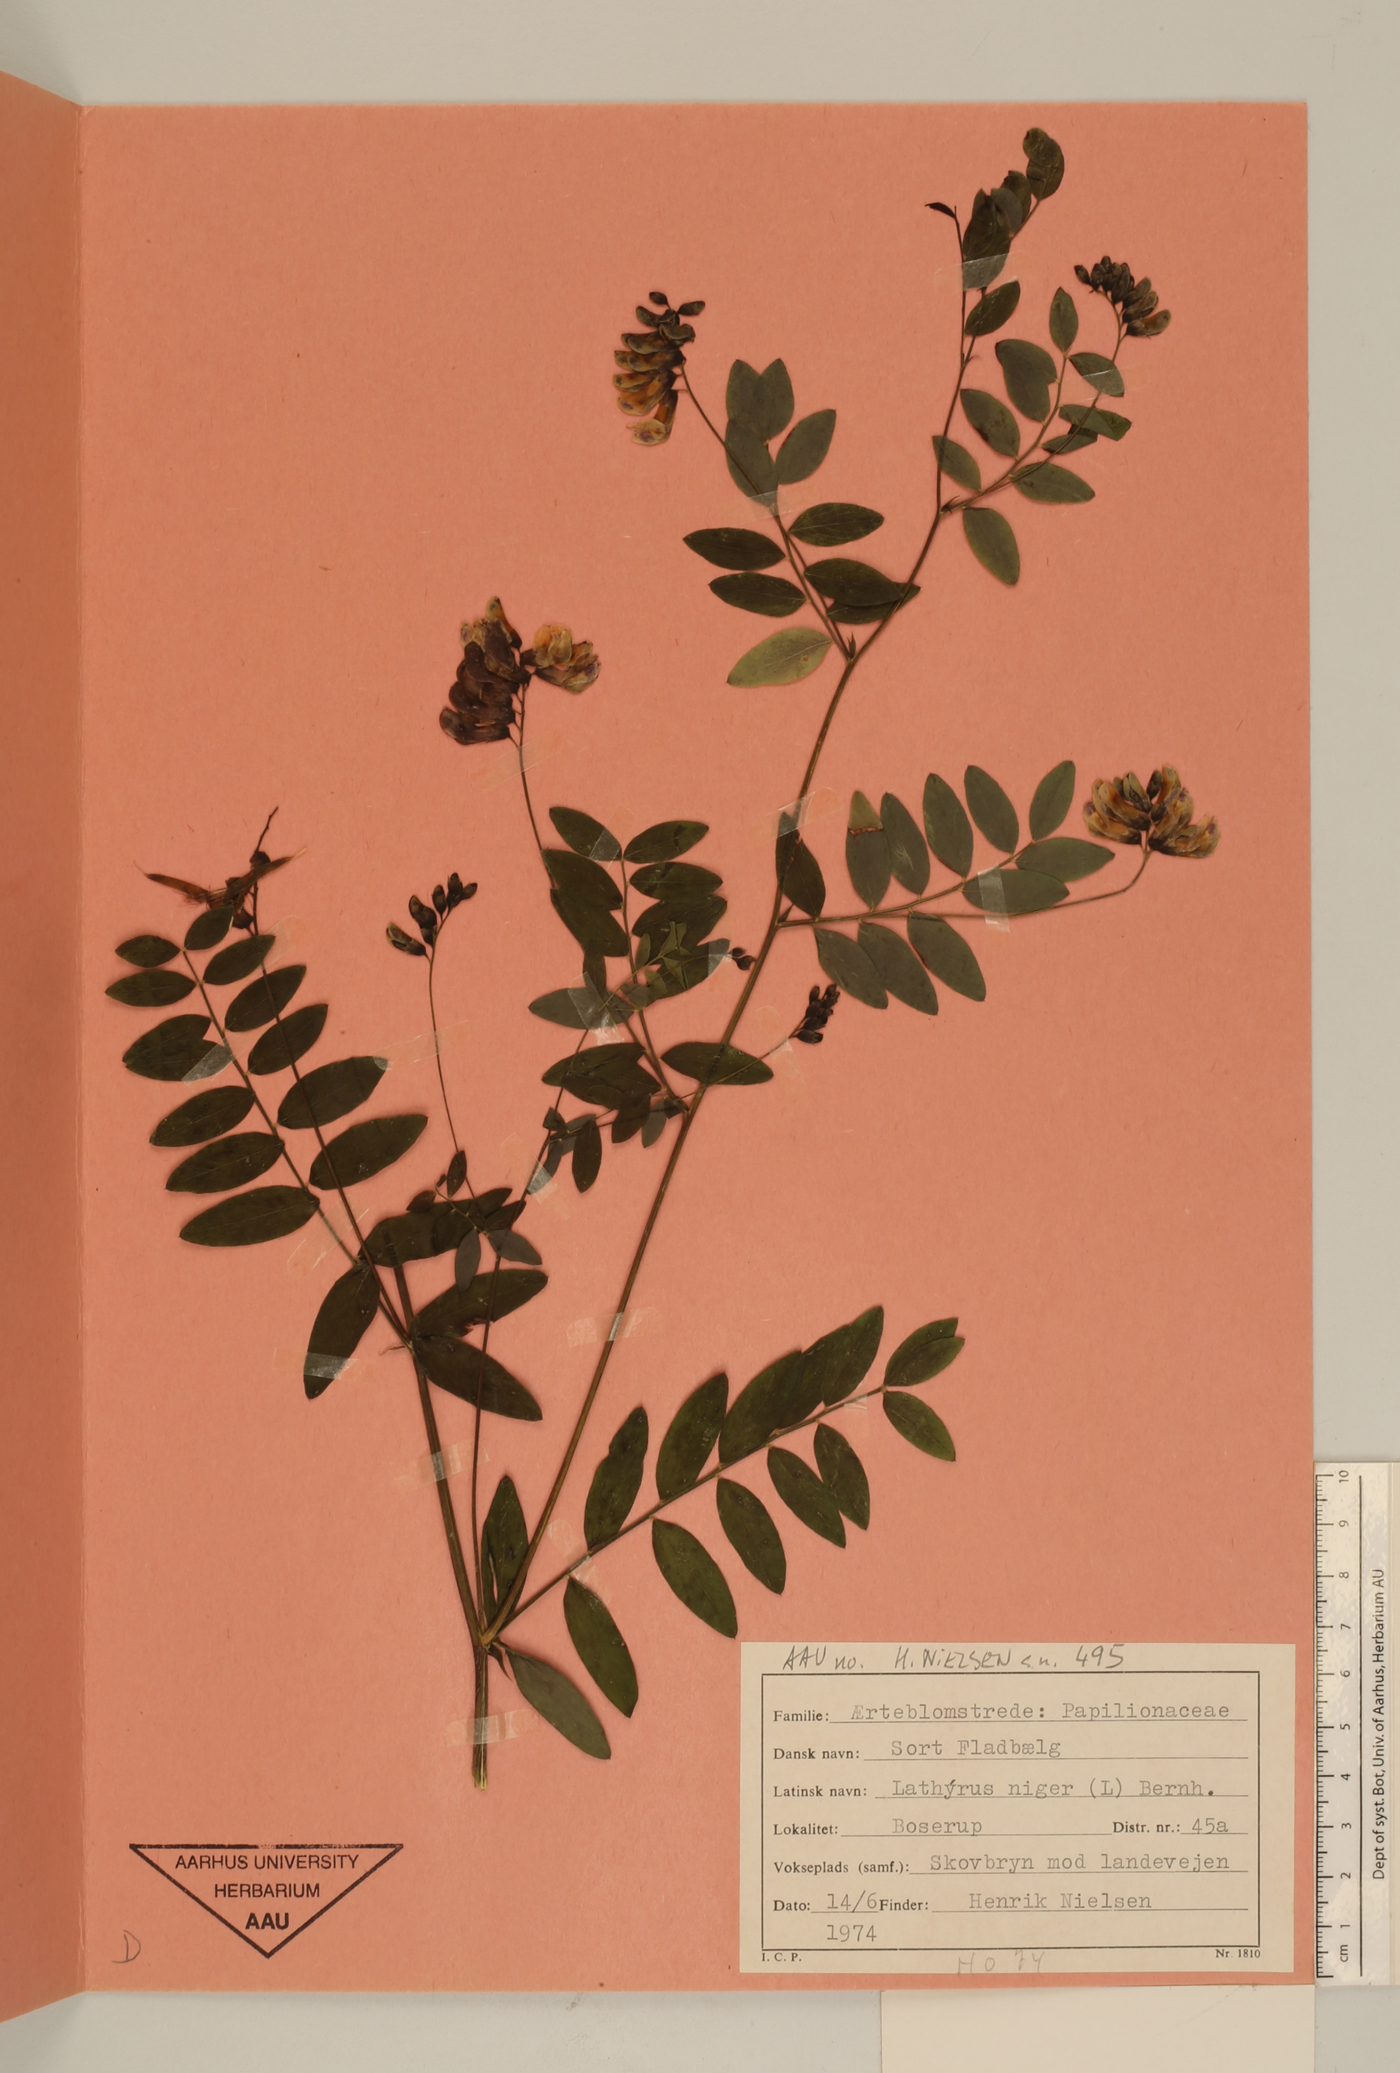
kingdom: Plantae
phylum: Tracheophyta
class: Magnoliopsida
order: Fabales
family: Fabaceae
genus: Lathyrus
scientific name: Lathyrus niger
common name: Black pea
